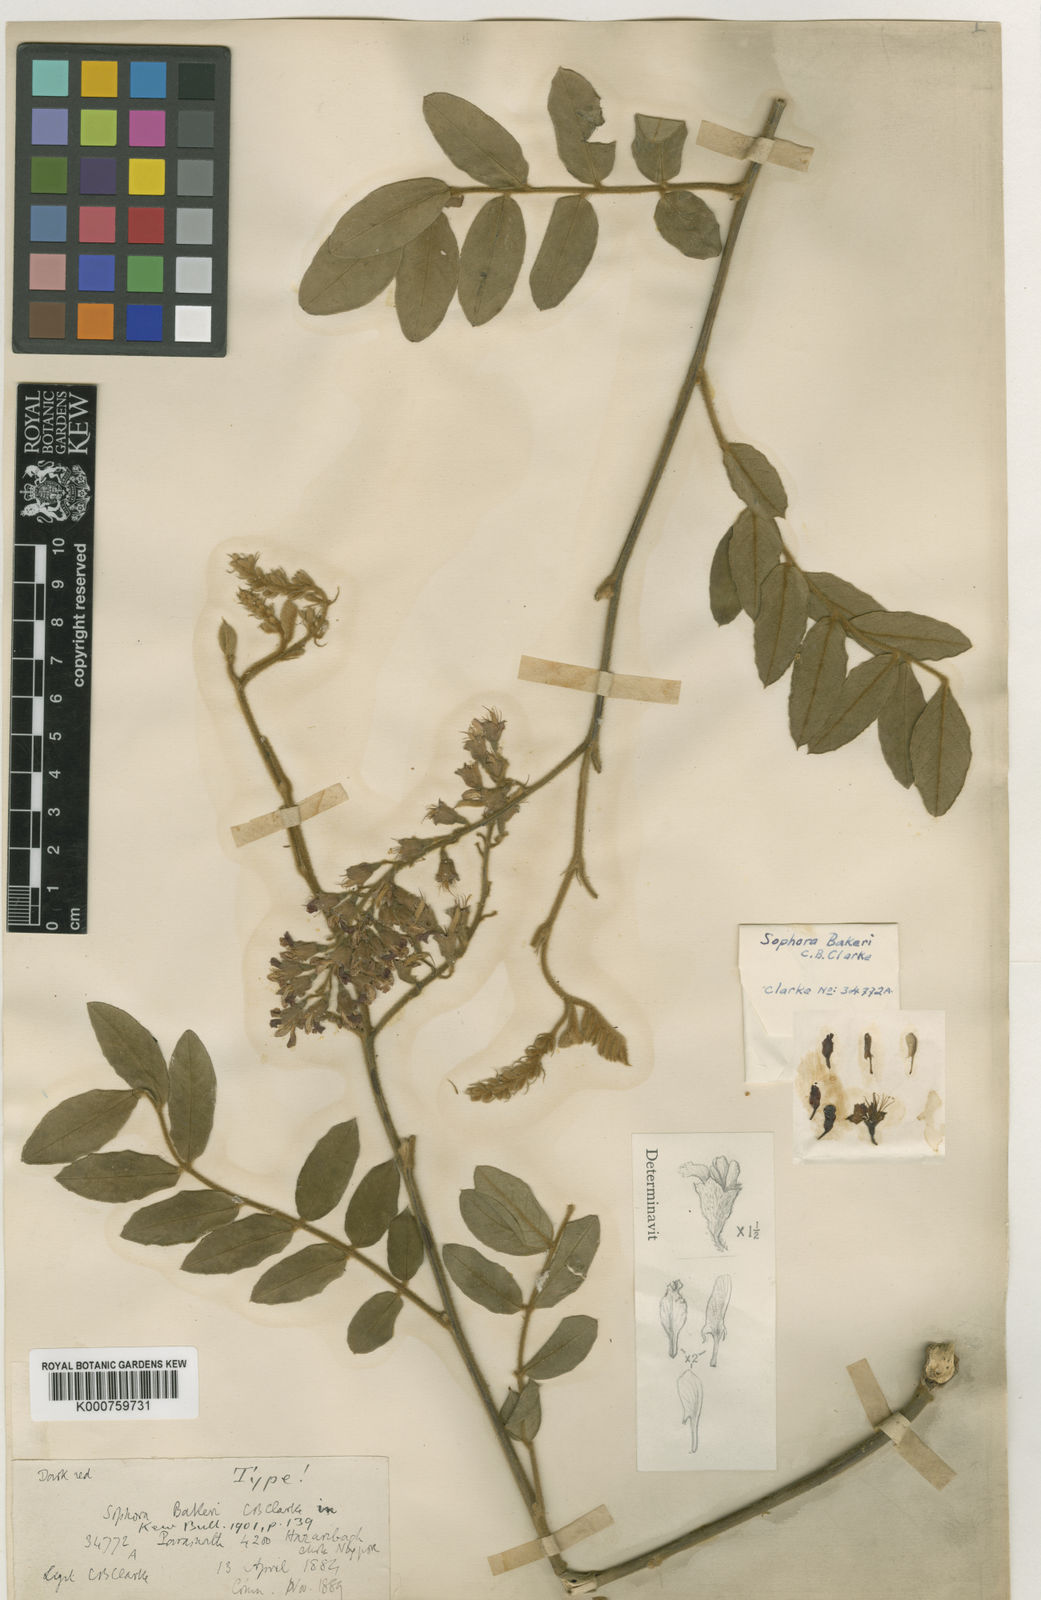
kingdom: Plantae
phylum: Tracheophyta
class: Magnoliopsida
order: Fabales
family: Fabaceae
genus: Sophora
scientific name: Sophora velutina
